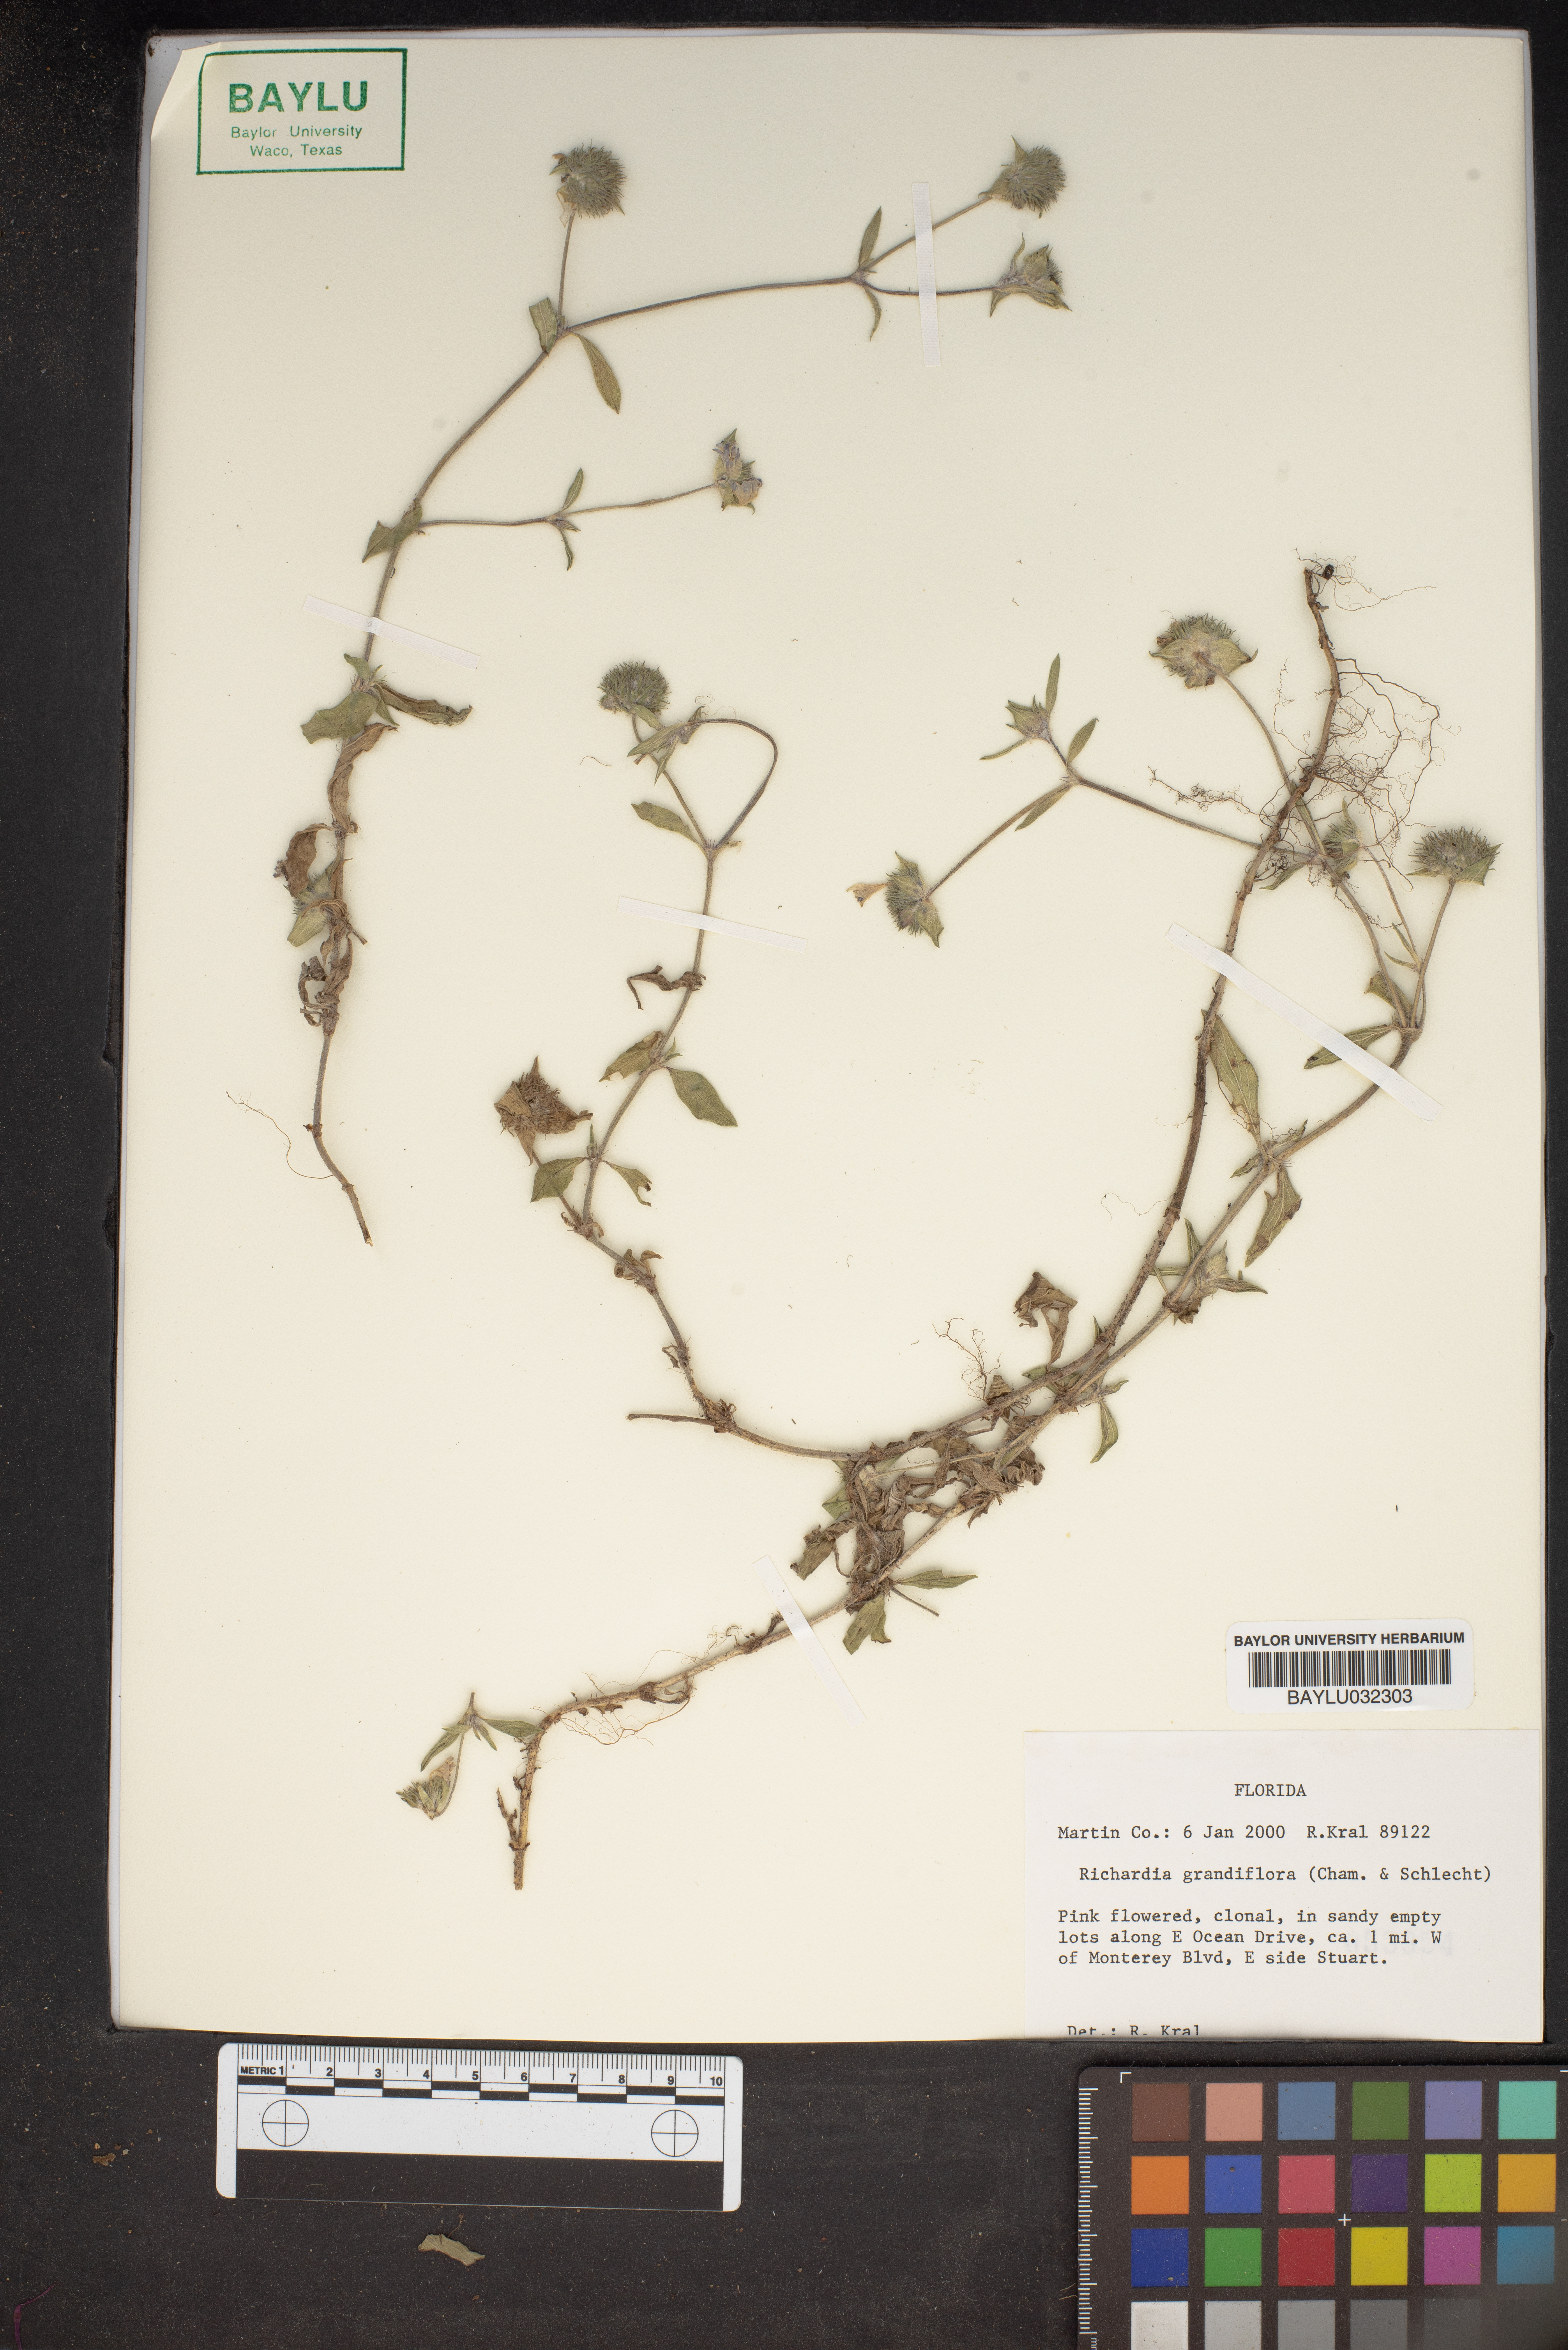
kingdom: Plantae
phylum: Tracheophyta
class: Magnoliopsida
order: Gentianales
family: Rubiaceae
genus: Richardia
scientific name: Richardia grandiflora
